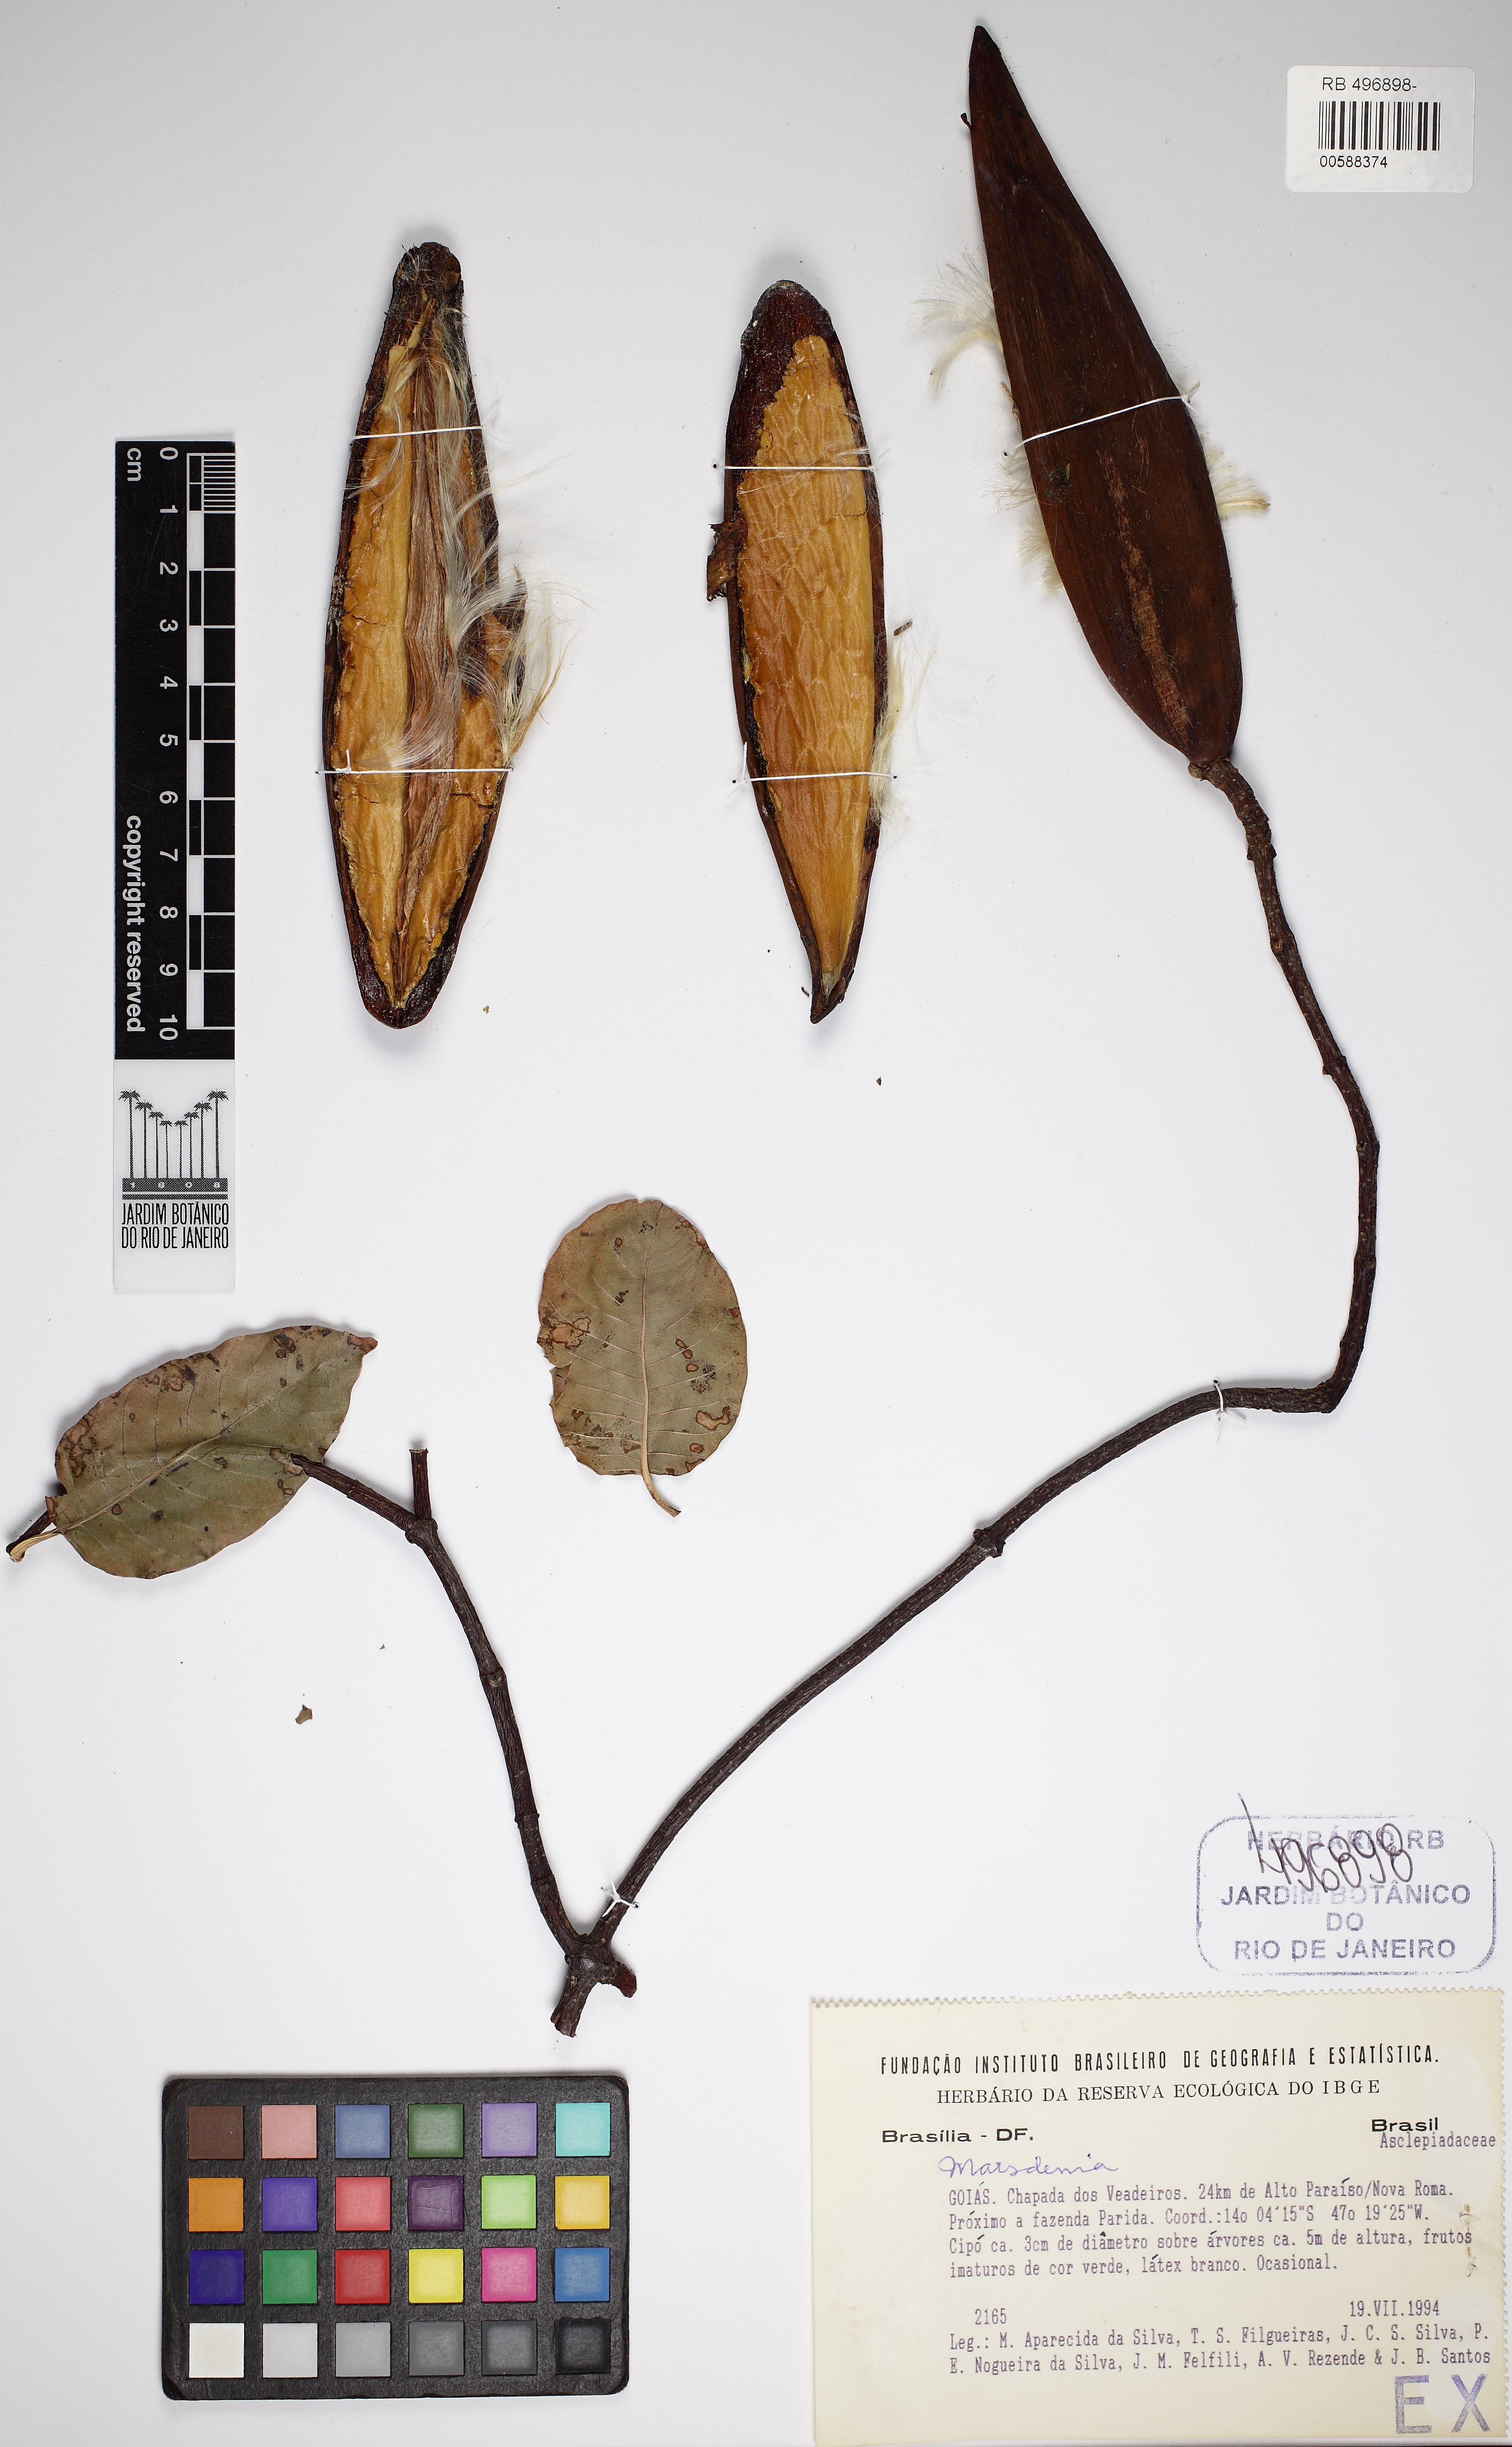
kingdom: Plantae
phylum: Tracheophyta
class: Magnoliopsida
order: Gentianales
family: Apocynaceae
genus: Marsdenia
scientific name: Marsdenia
